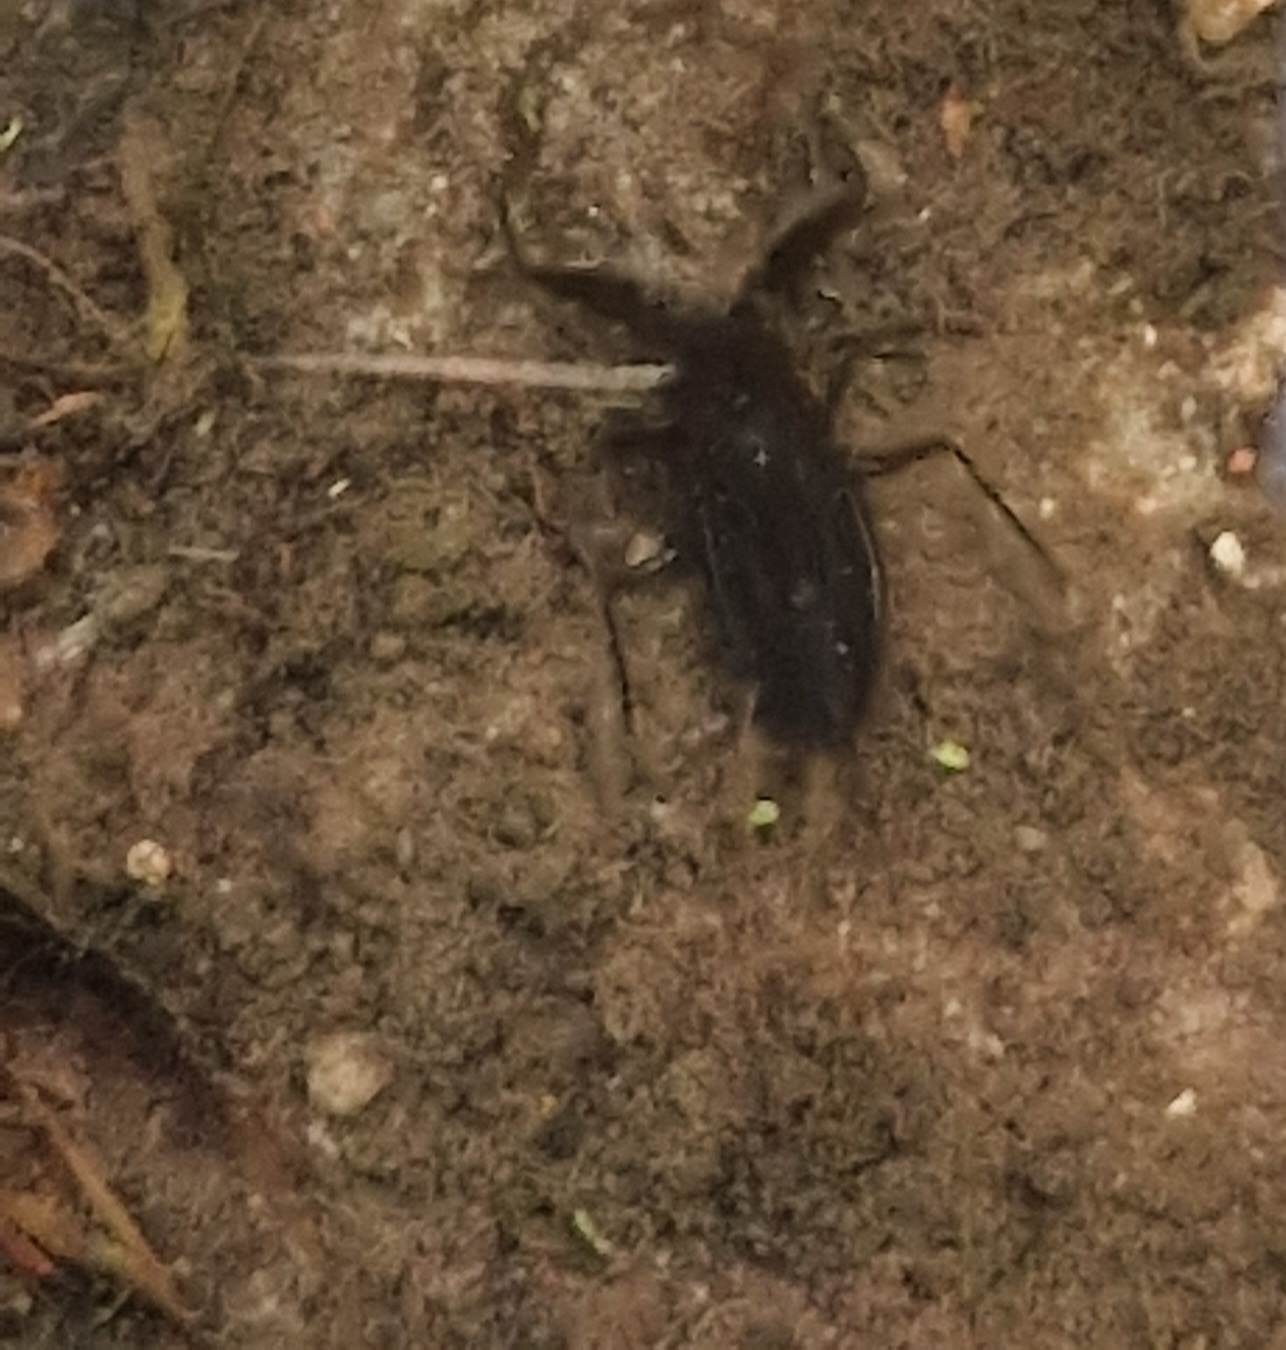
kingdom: Animalia
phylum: Arthropoda
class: Insecta
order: Hemiptera
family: Nepidae
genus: Nepa
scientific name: Nepa cinerea
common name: Skorpiontæge
